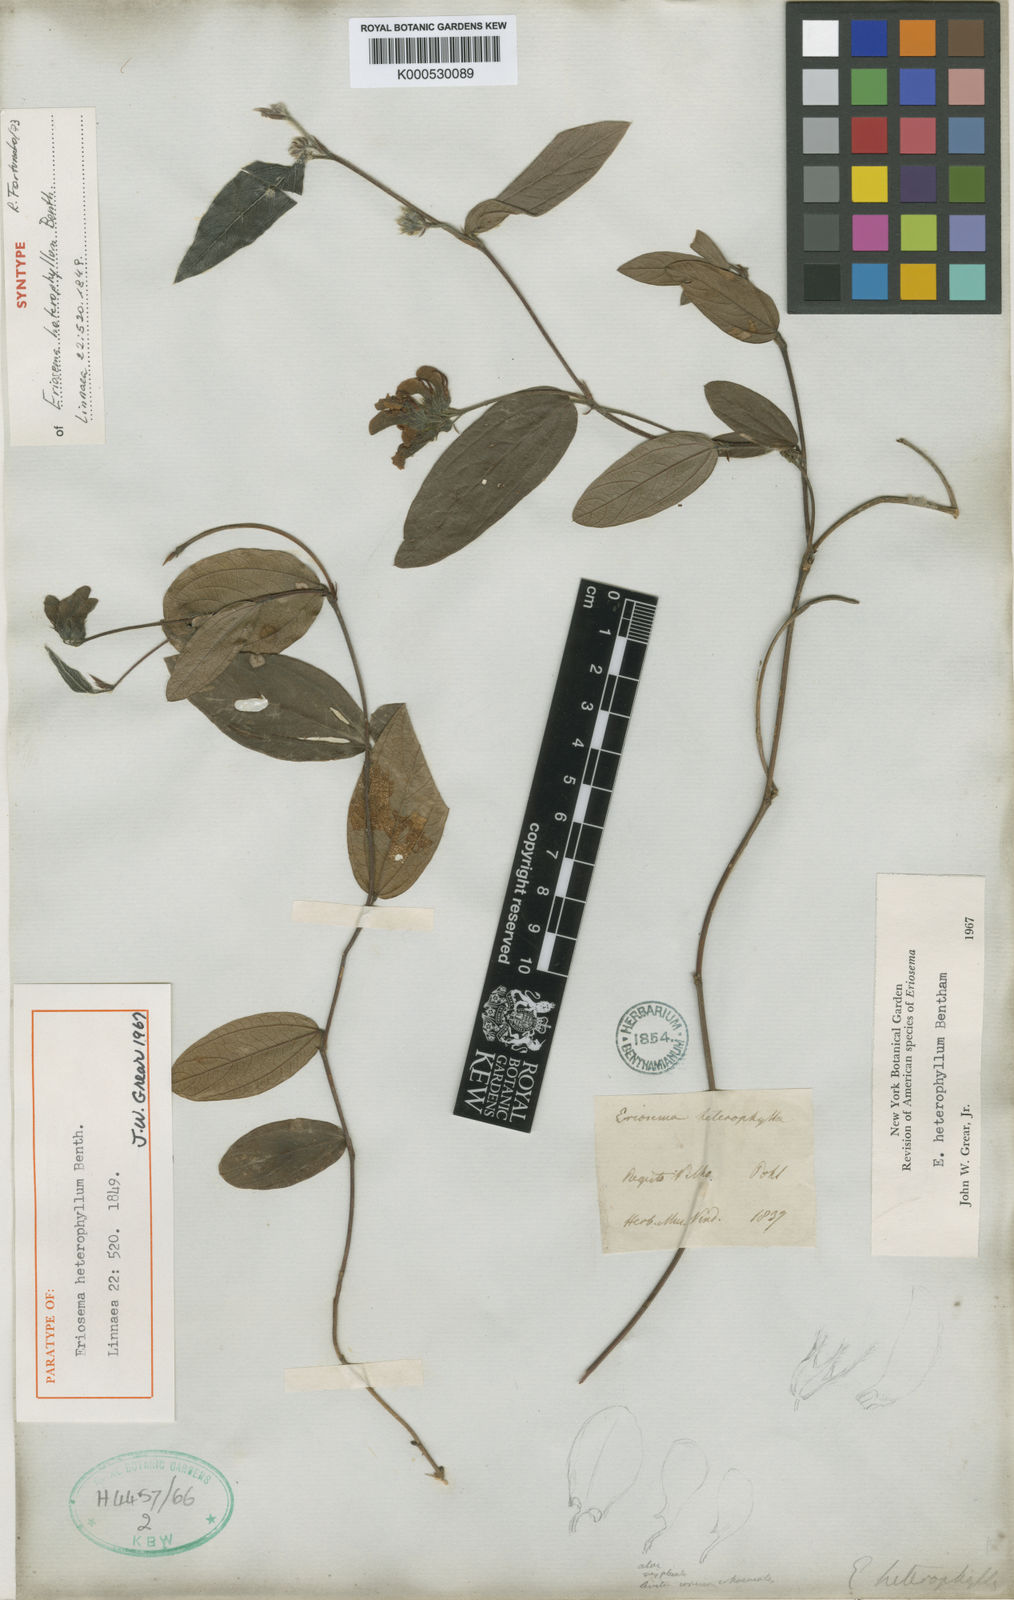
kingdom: Plantae
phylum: Tracheophyta
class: Magnoliopsida
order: Fabales
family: Fabaceae
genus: Eriosema
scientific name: Eriosema heterophyllum
